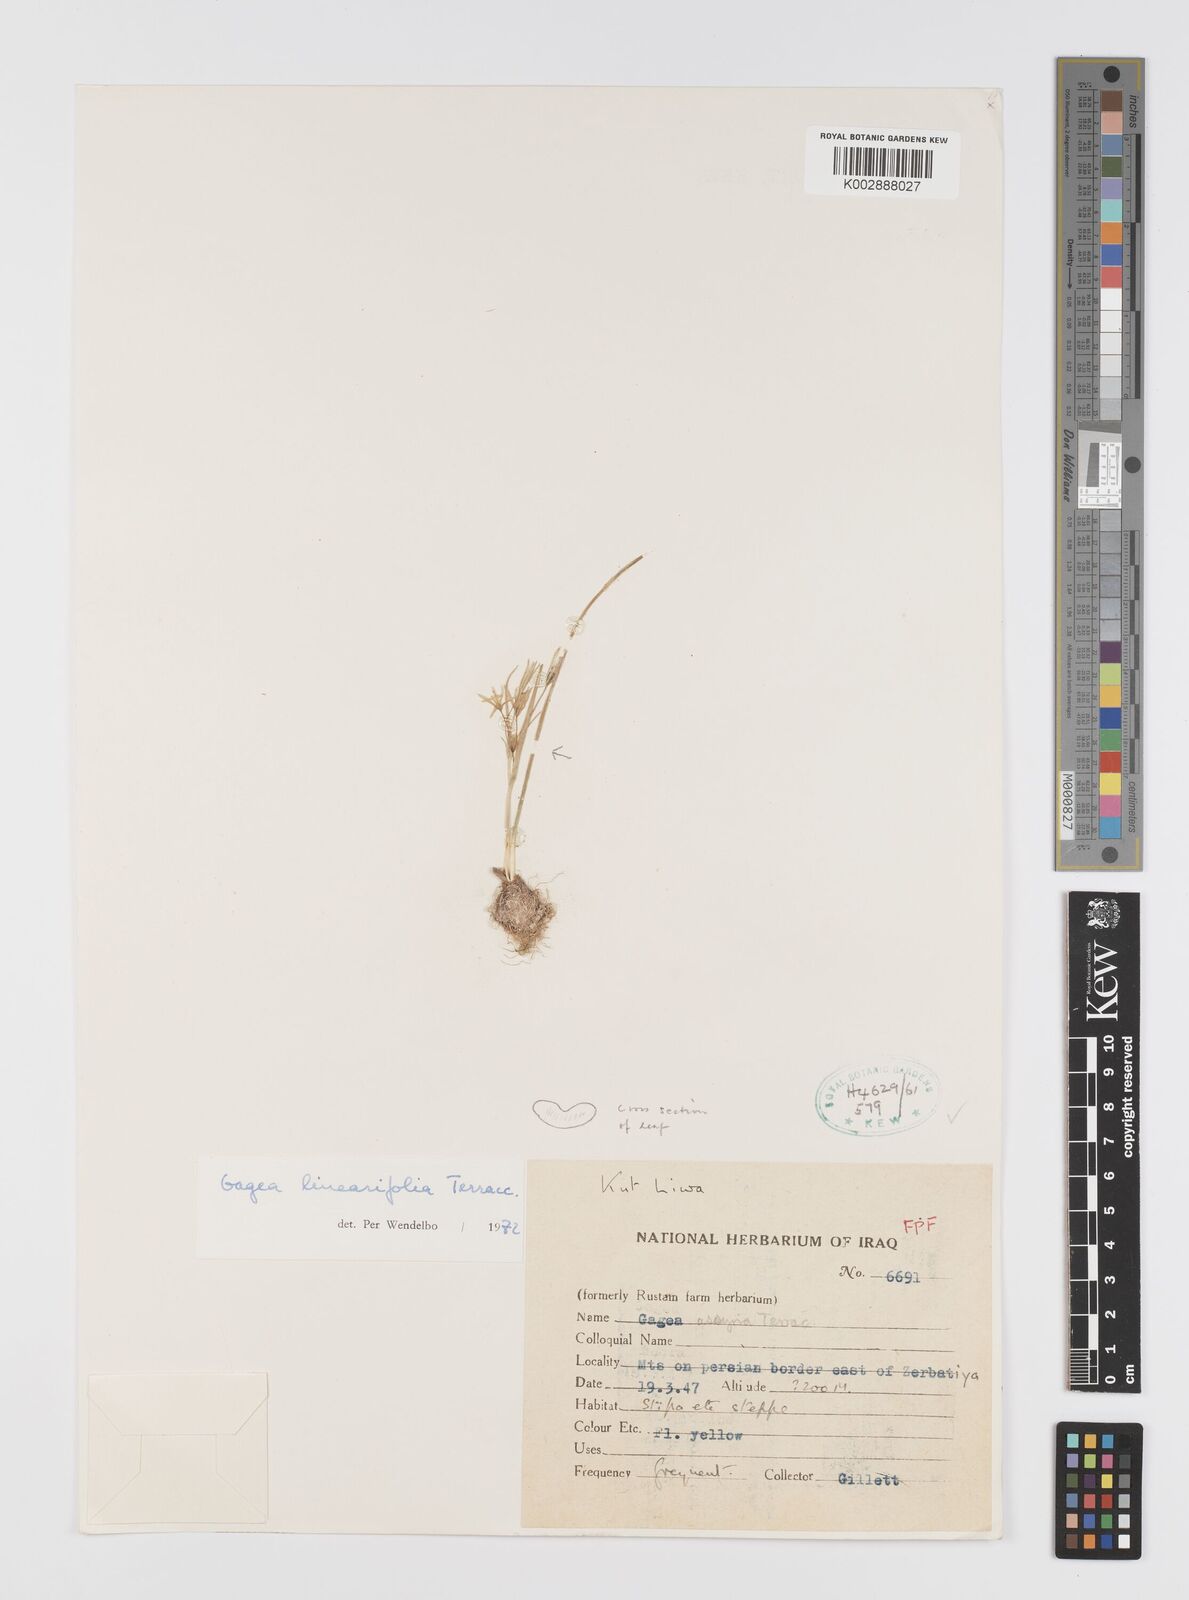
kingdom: Plantae
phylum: Tracheophyta
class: Liliopsida
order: Liliales
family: Liliaceae
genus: Gagea
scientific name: Gagea luteoides
